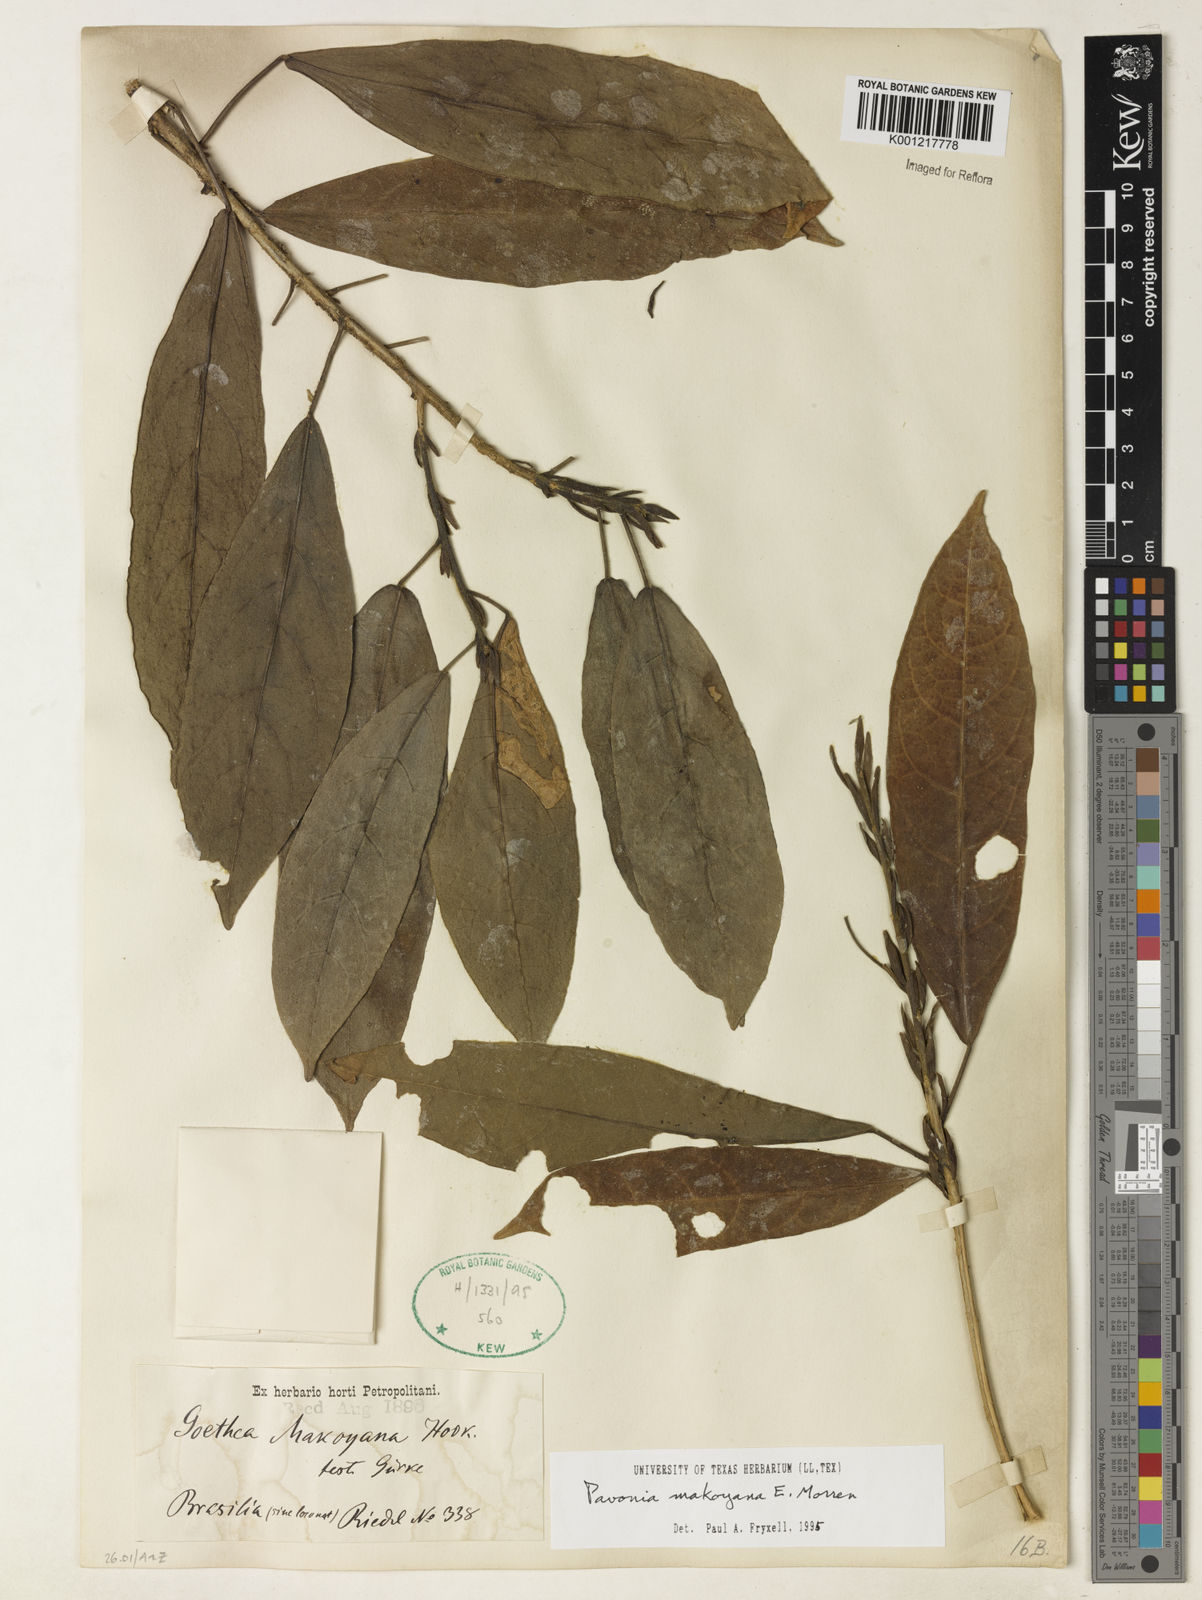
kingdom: Plantae
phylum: Tracheophyta
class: Magnoliopsida
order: Malvales
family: Malvaceae
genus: Pavonia
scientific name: Pavonia makoyana
